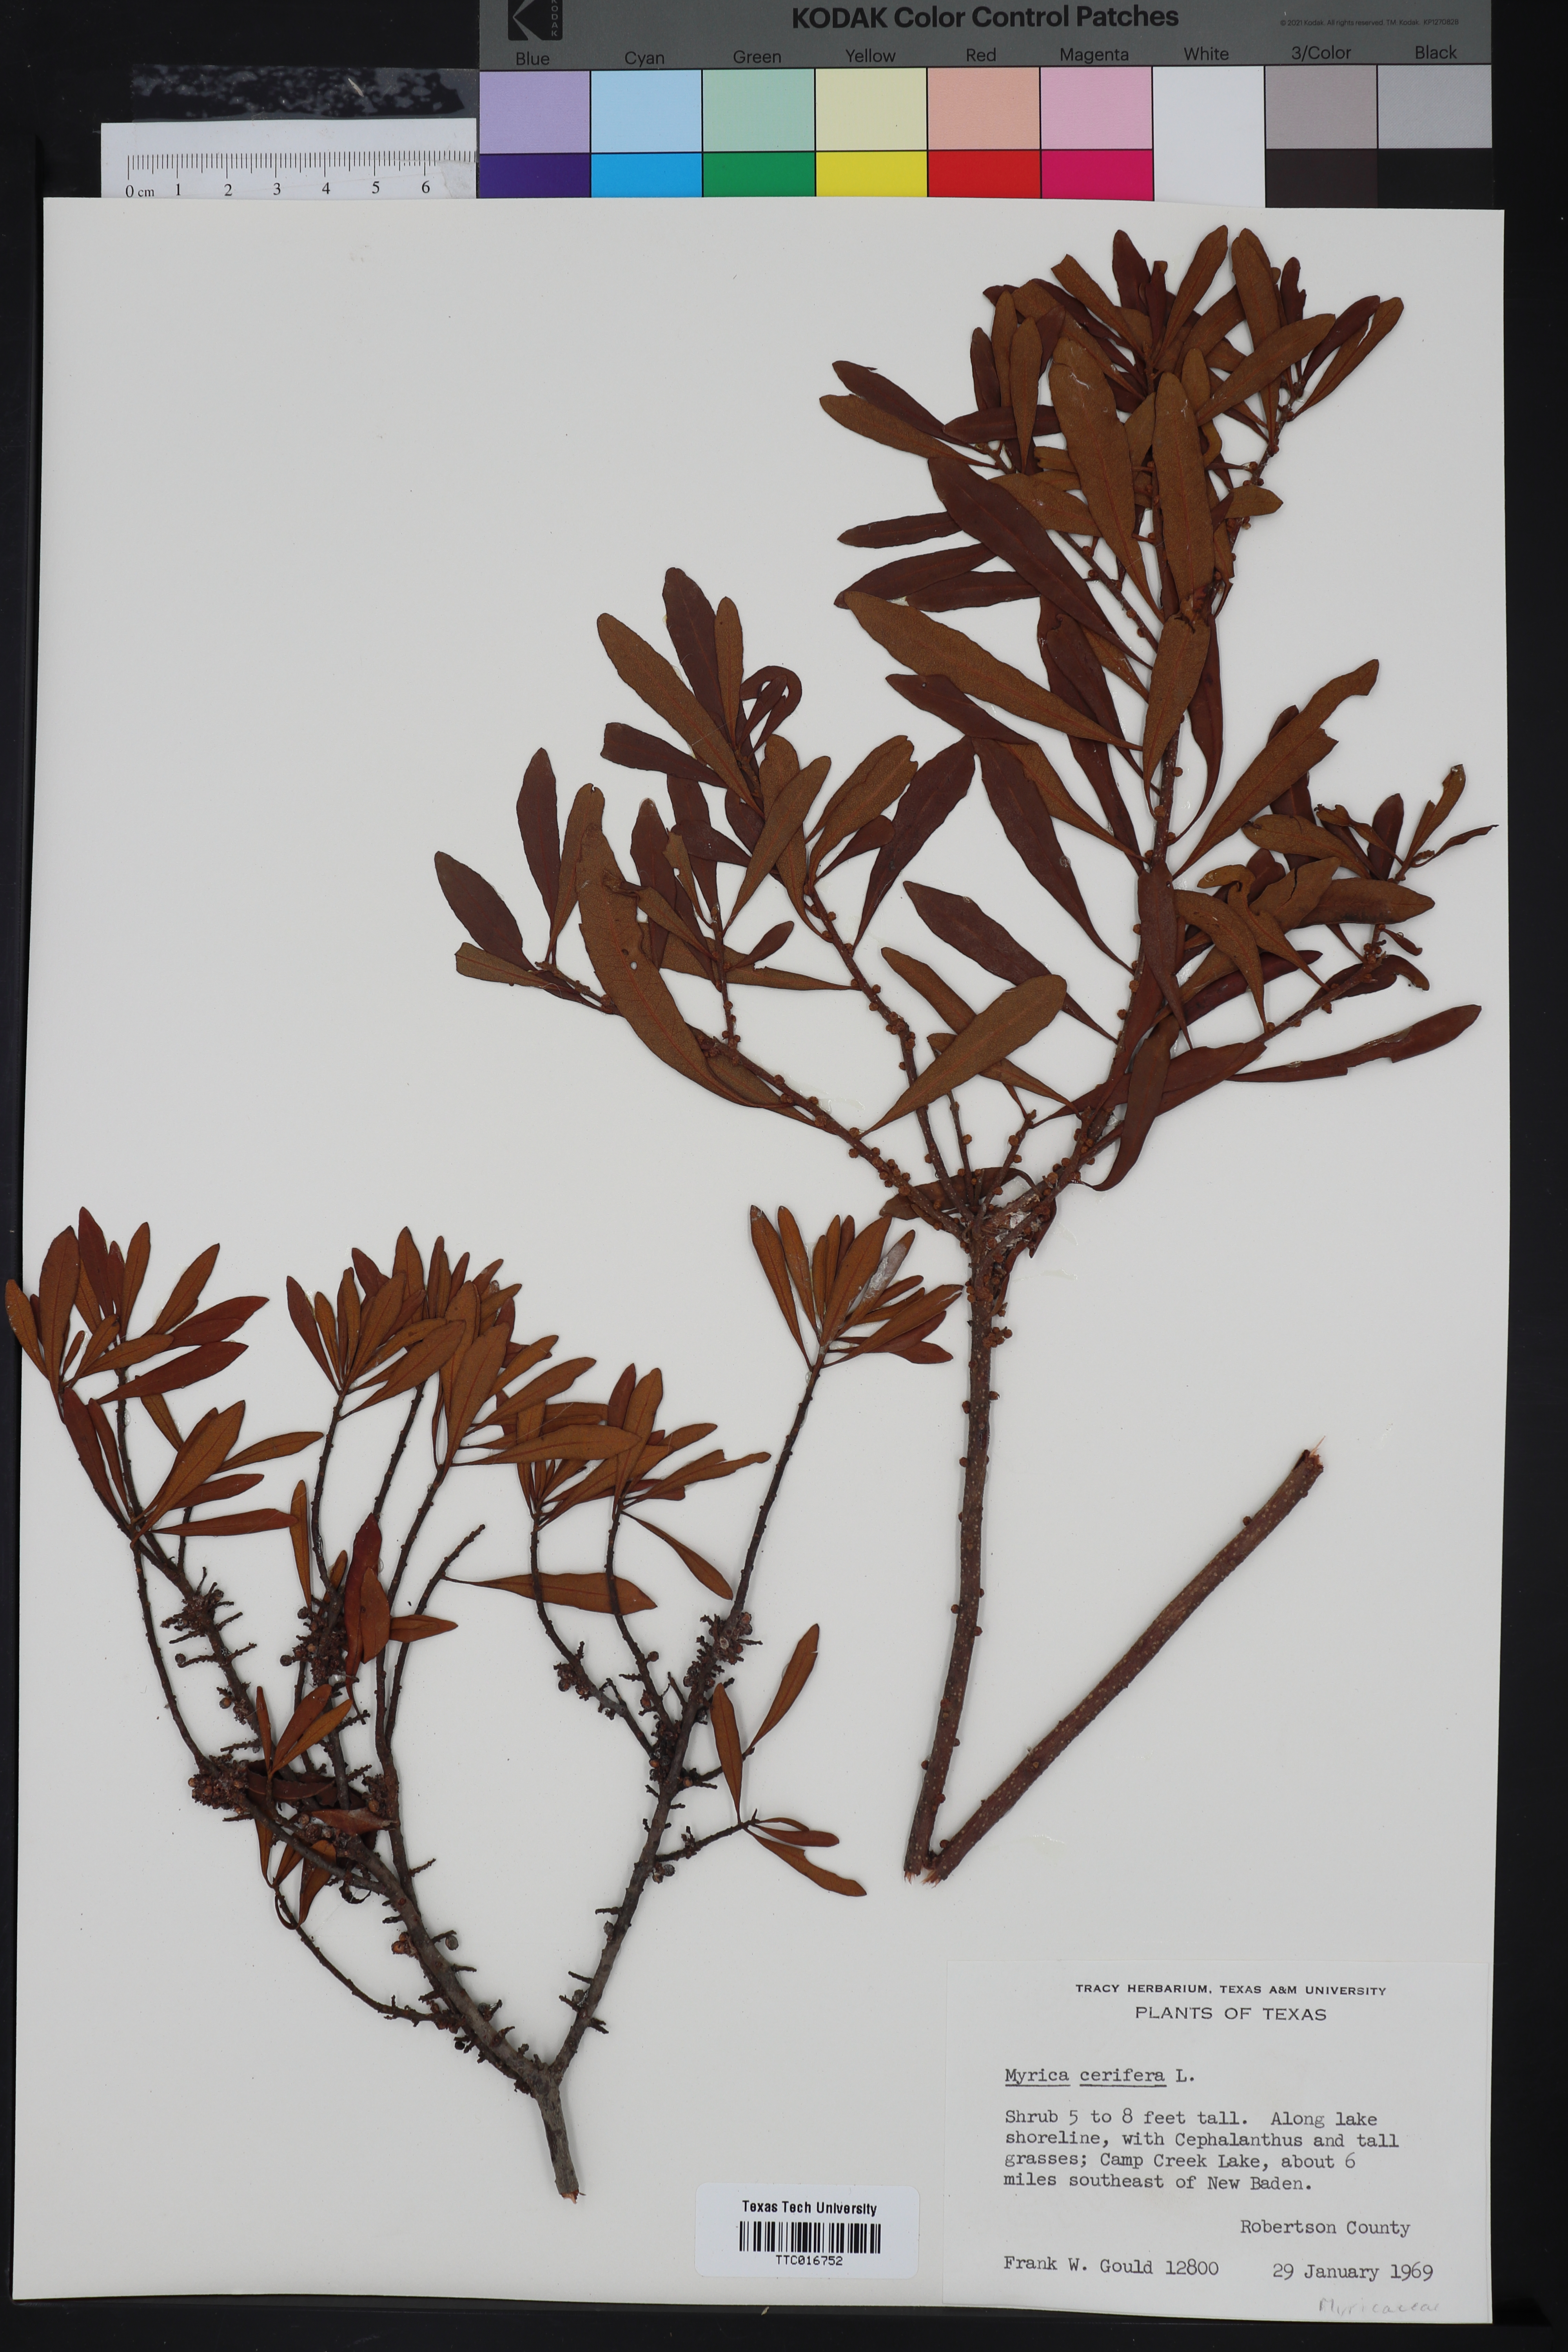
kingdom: Plantae
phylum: Tracheophyta
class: Magnoliopsida
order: Fagales
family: Myricaceae
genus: Morella
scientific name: Morella cerifera
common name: Wax myrtle
